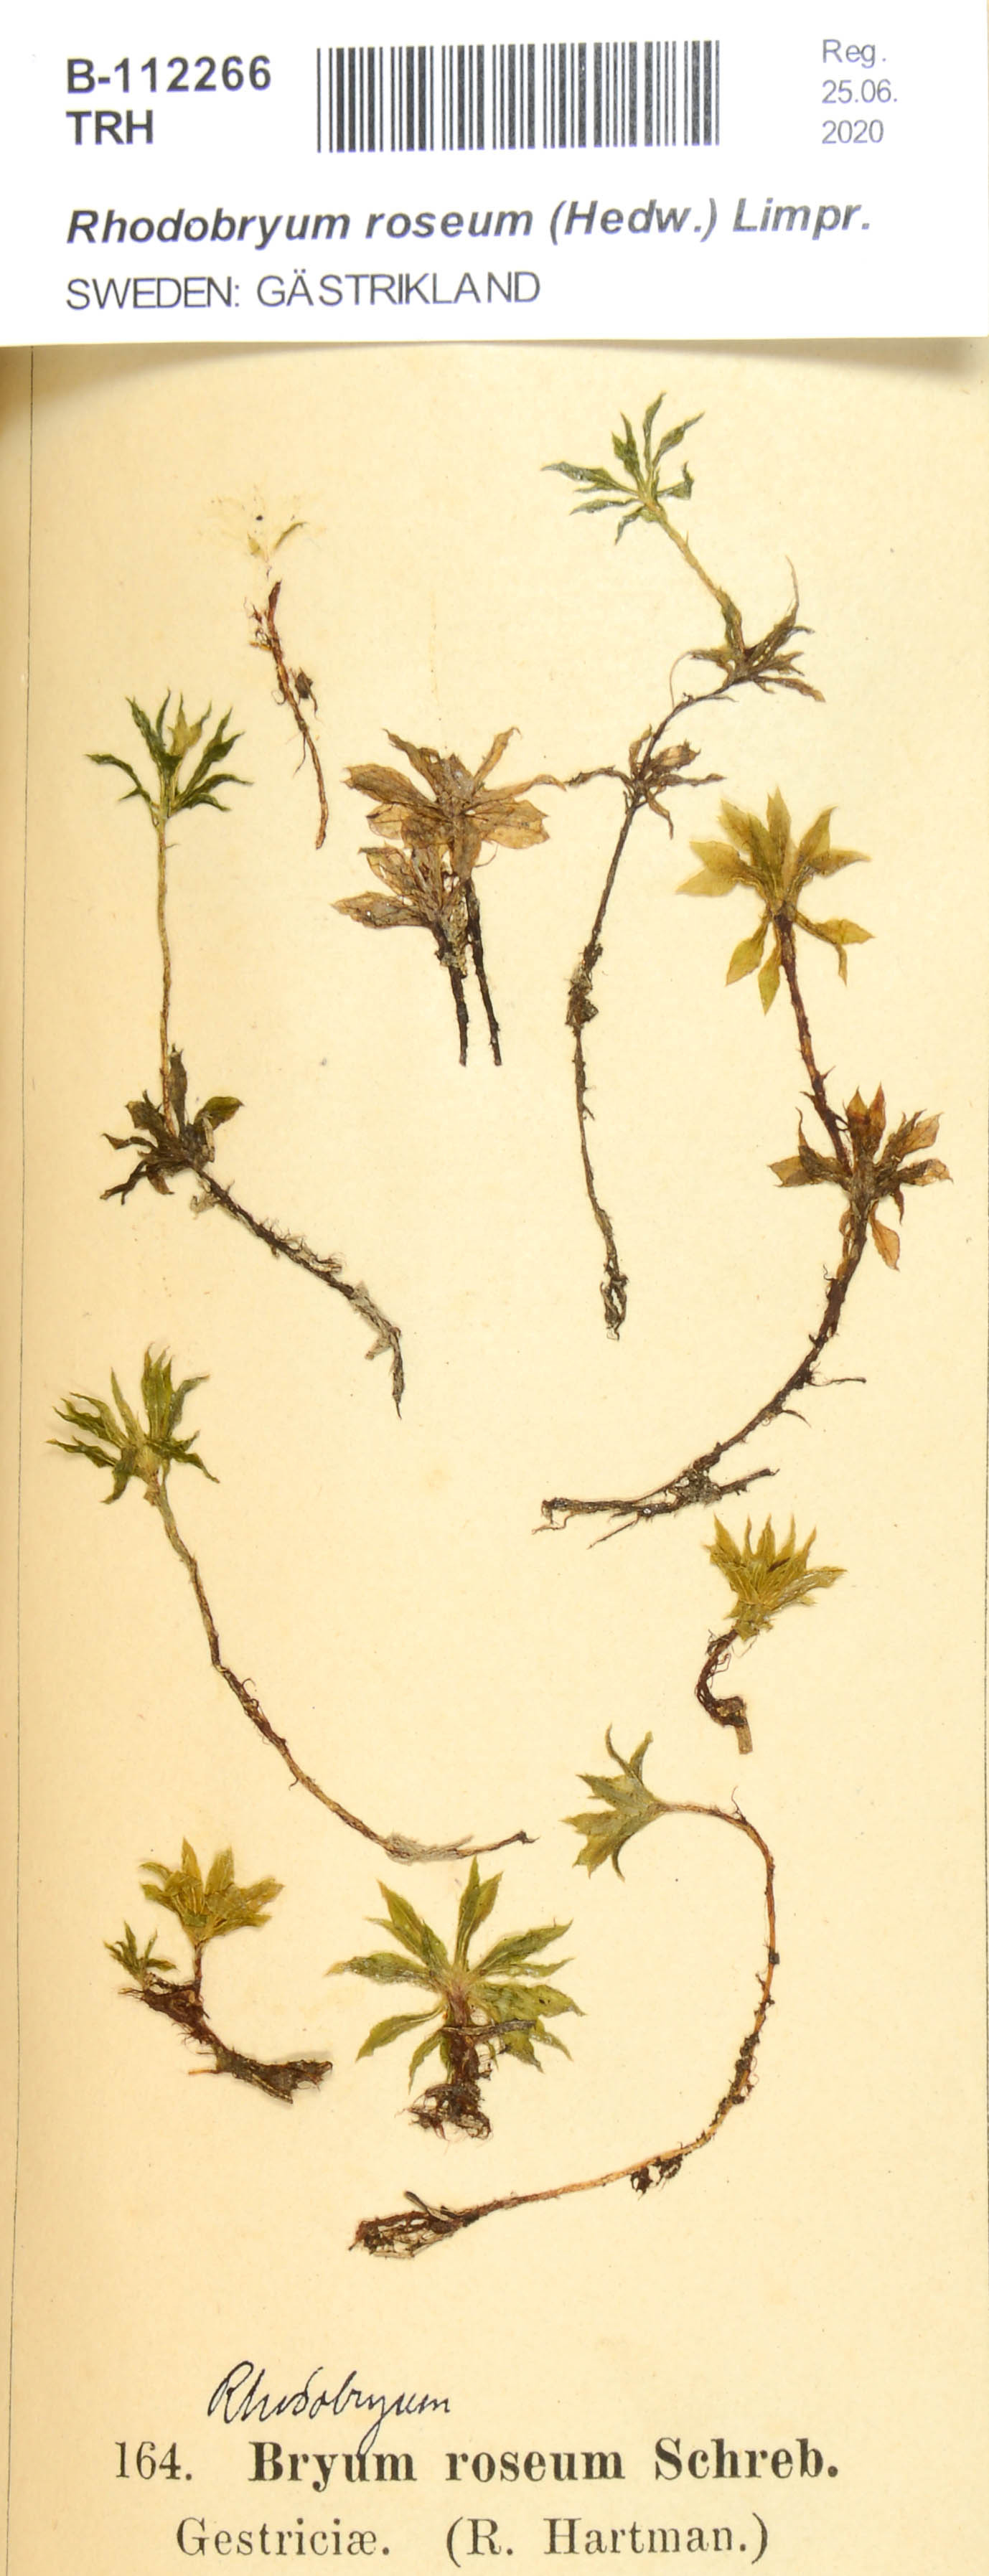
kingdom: Plantae
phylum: Bryophyta
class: Bryopsida
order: Bryales
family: Bryaceae
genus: Rhodobryum
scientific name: Rhodobryum roseum
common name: Rose-moss
